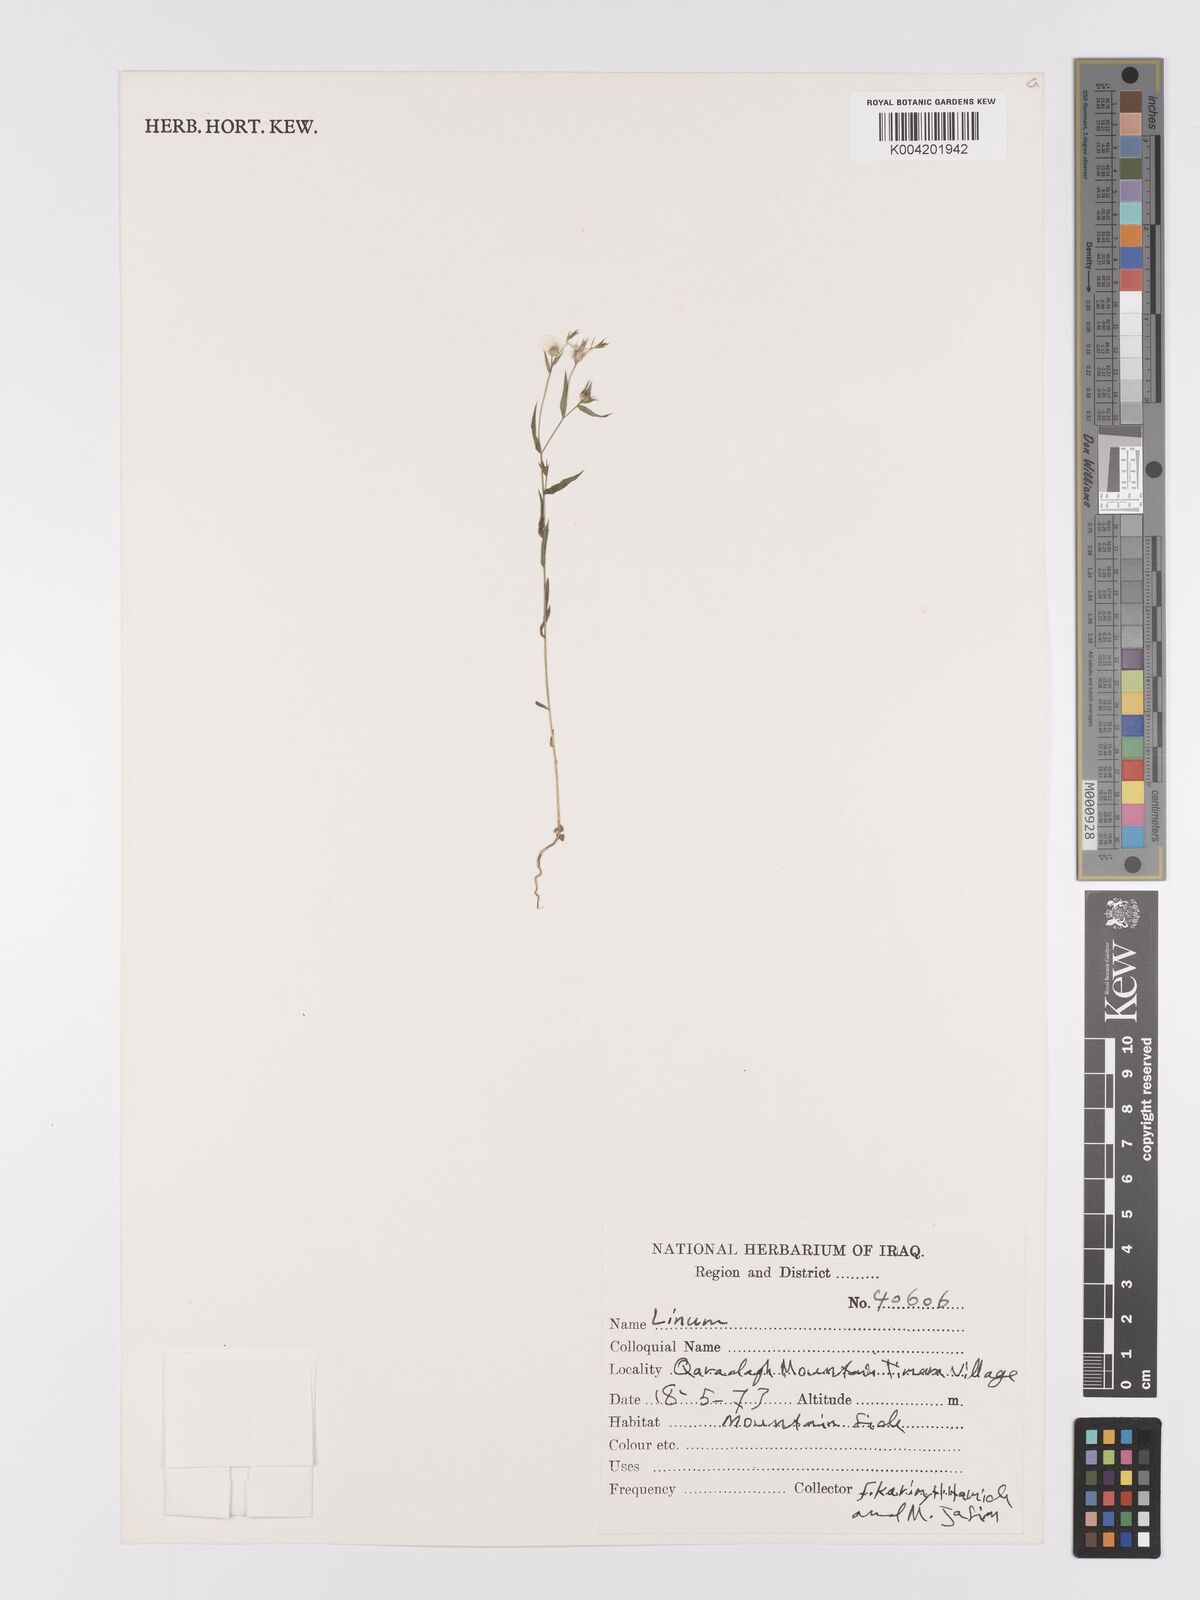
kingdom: Plantae
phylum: Tracheophyta
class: Magnoliopsida
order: Malpighiales
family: Linaceae
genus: Linum
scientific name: Linum
